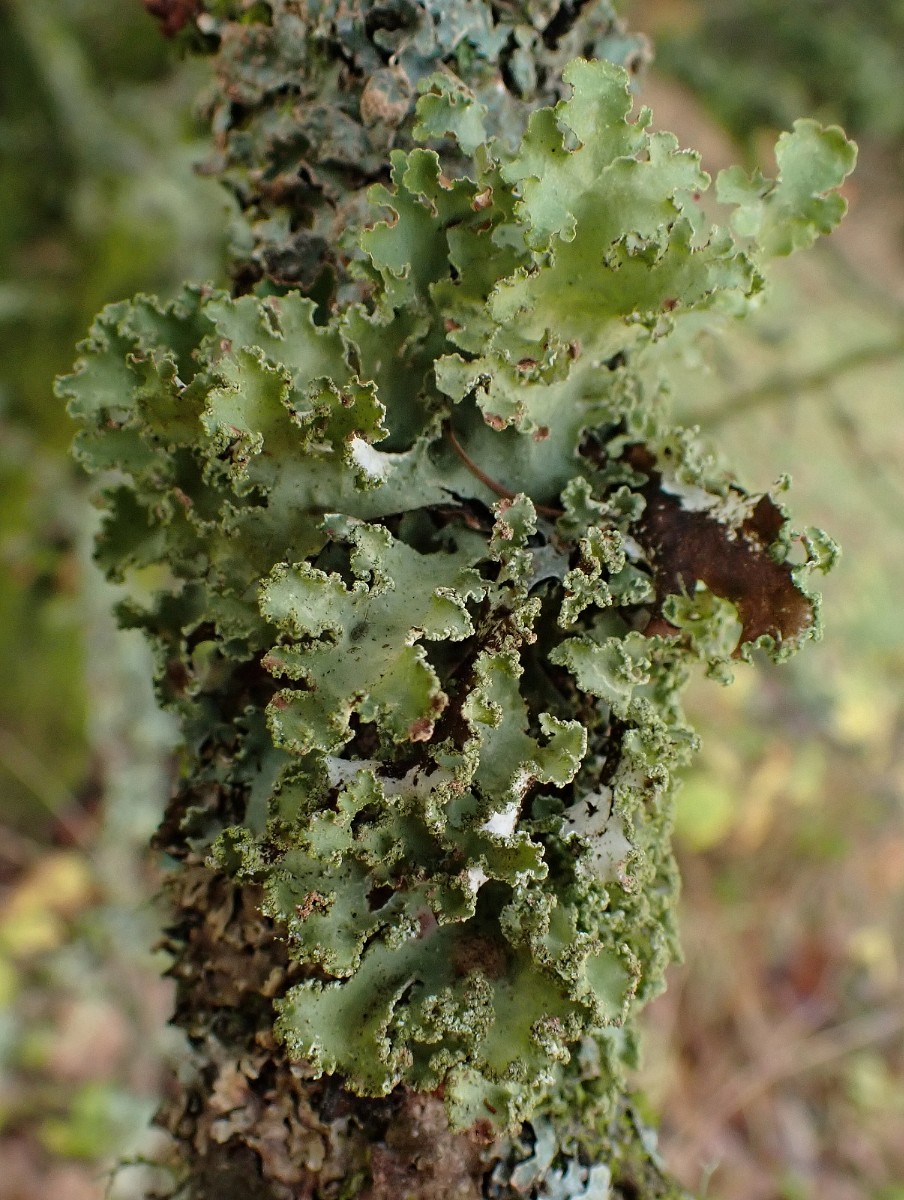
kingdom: Fungi
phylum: Ascomycota
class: Lecanoromycetes
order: Lecanorales
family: Parmeliaceae
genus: Platismatia
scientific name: Platismatia glauca
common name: blågrå papirlav
